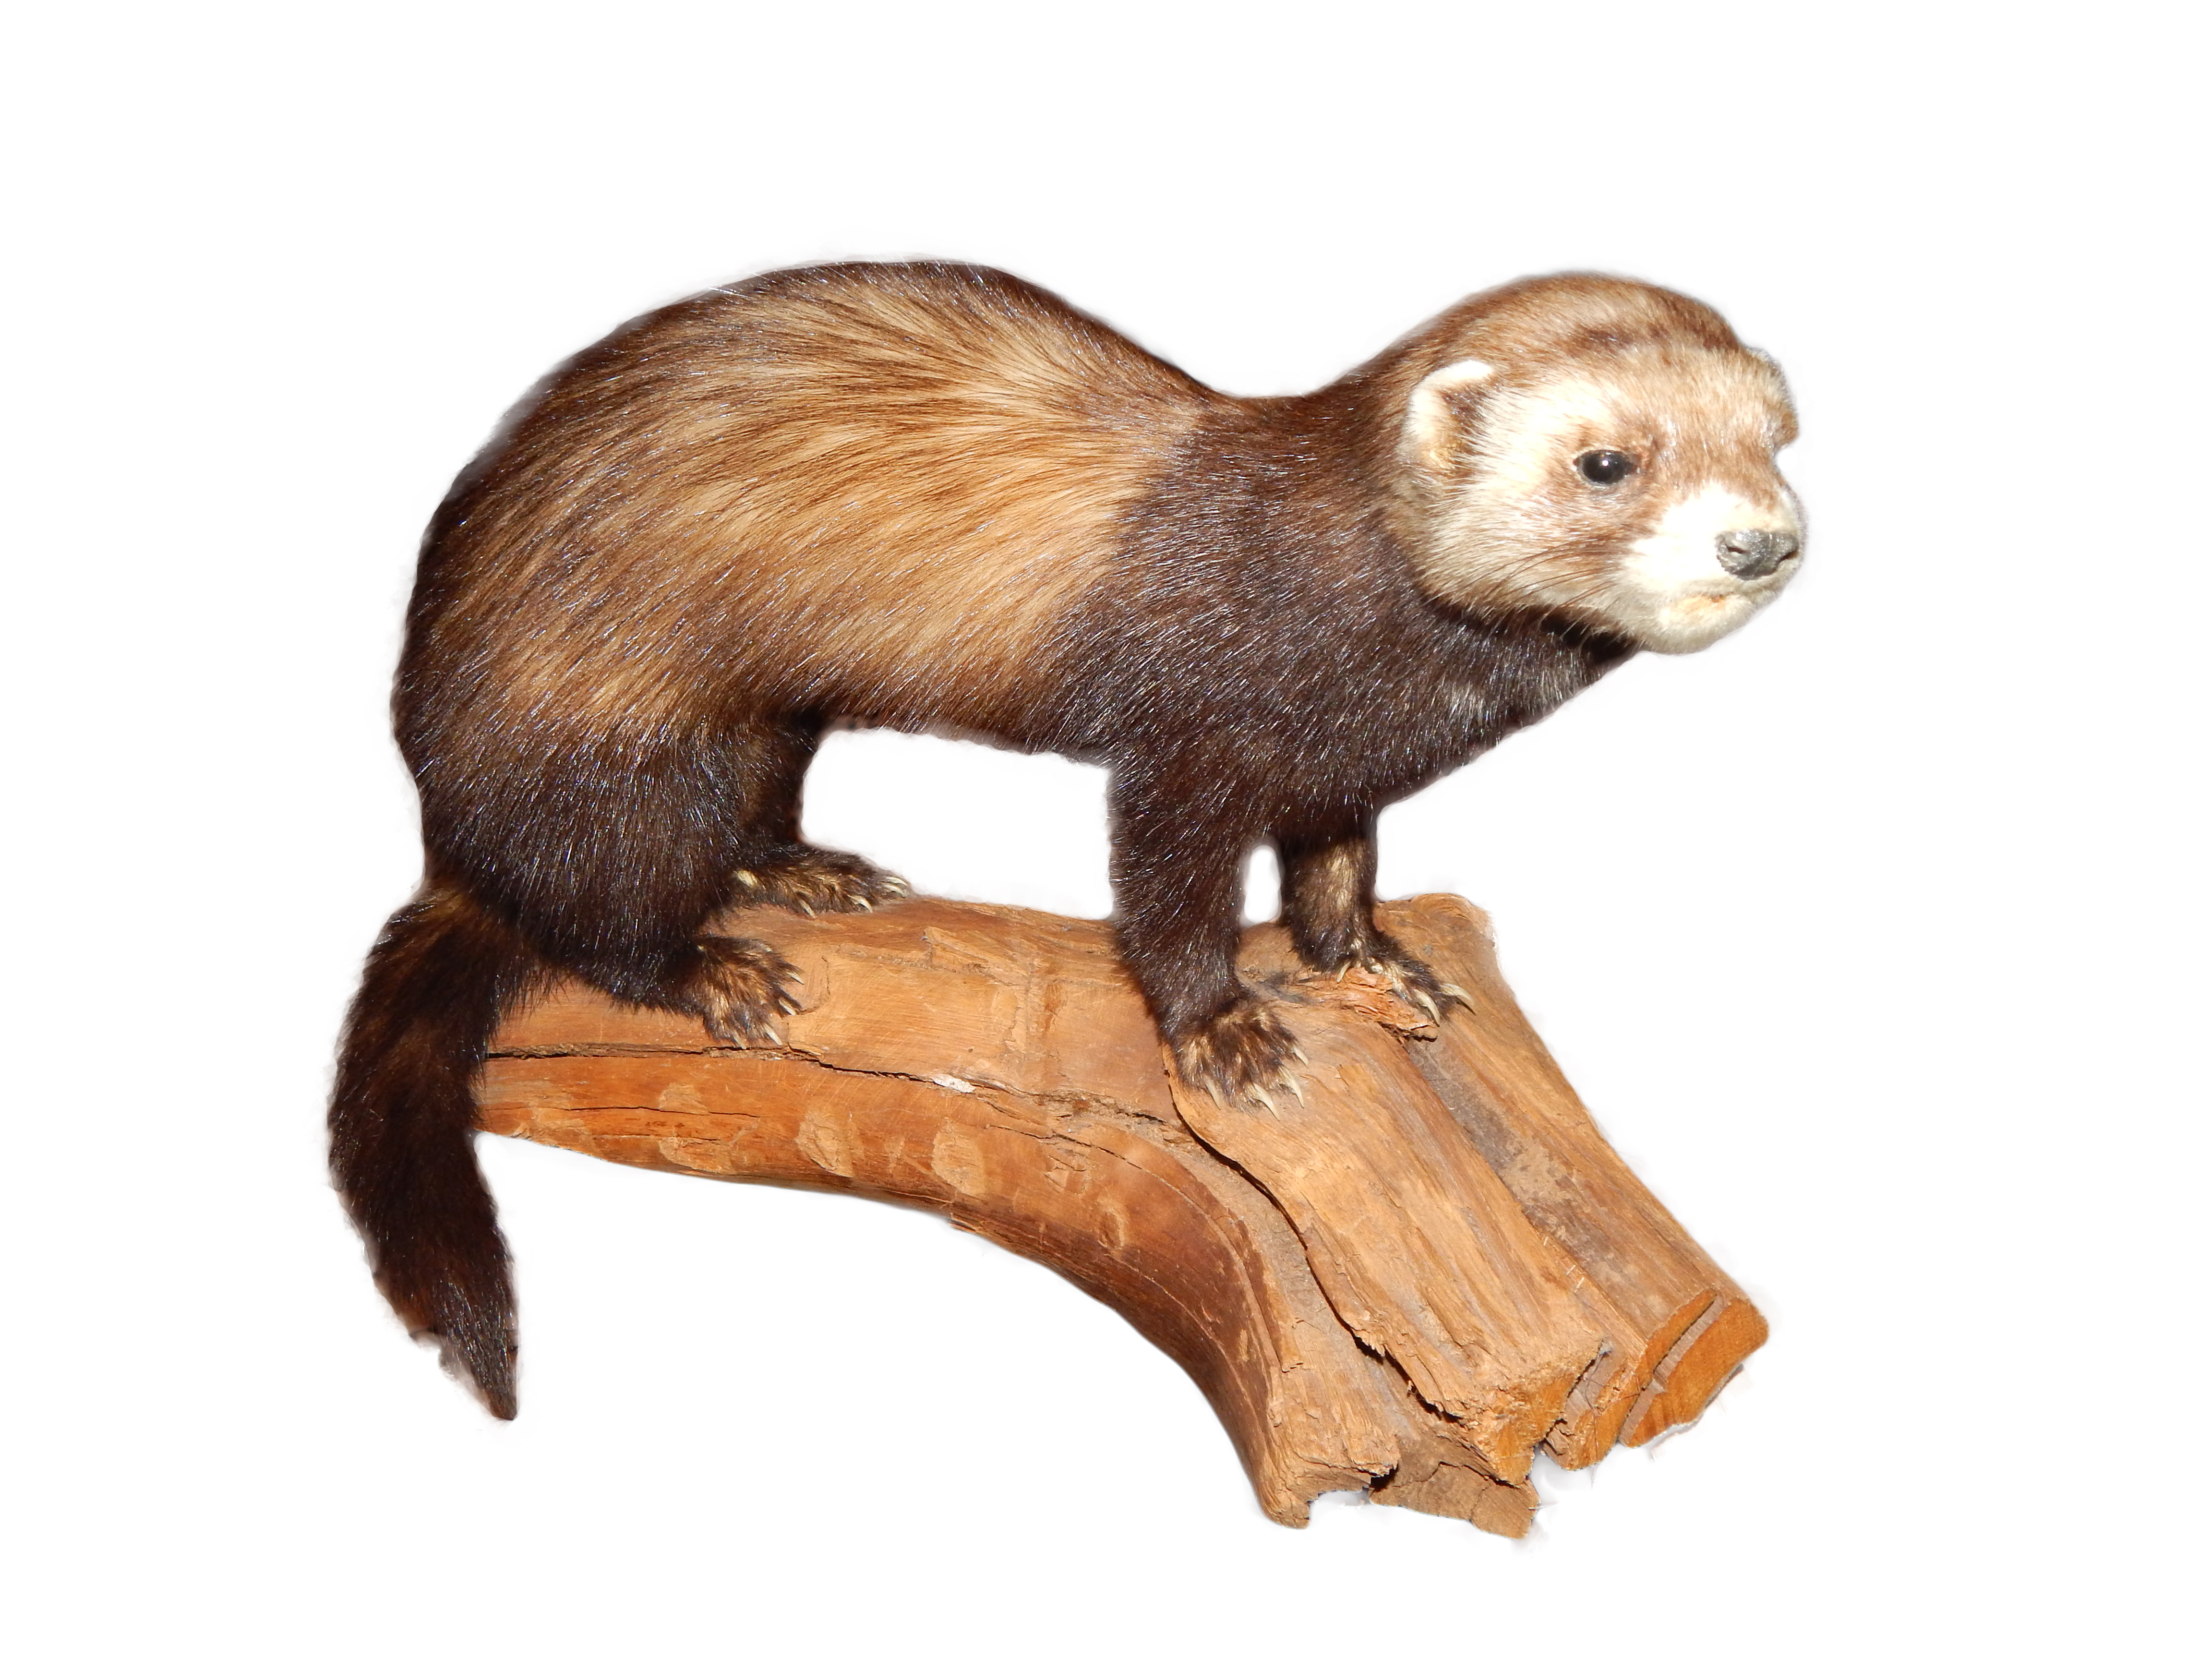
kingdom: Animalia
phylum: Chordata
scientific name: Chordata
